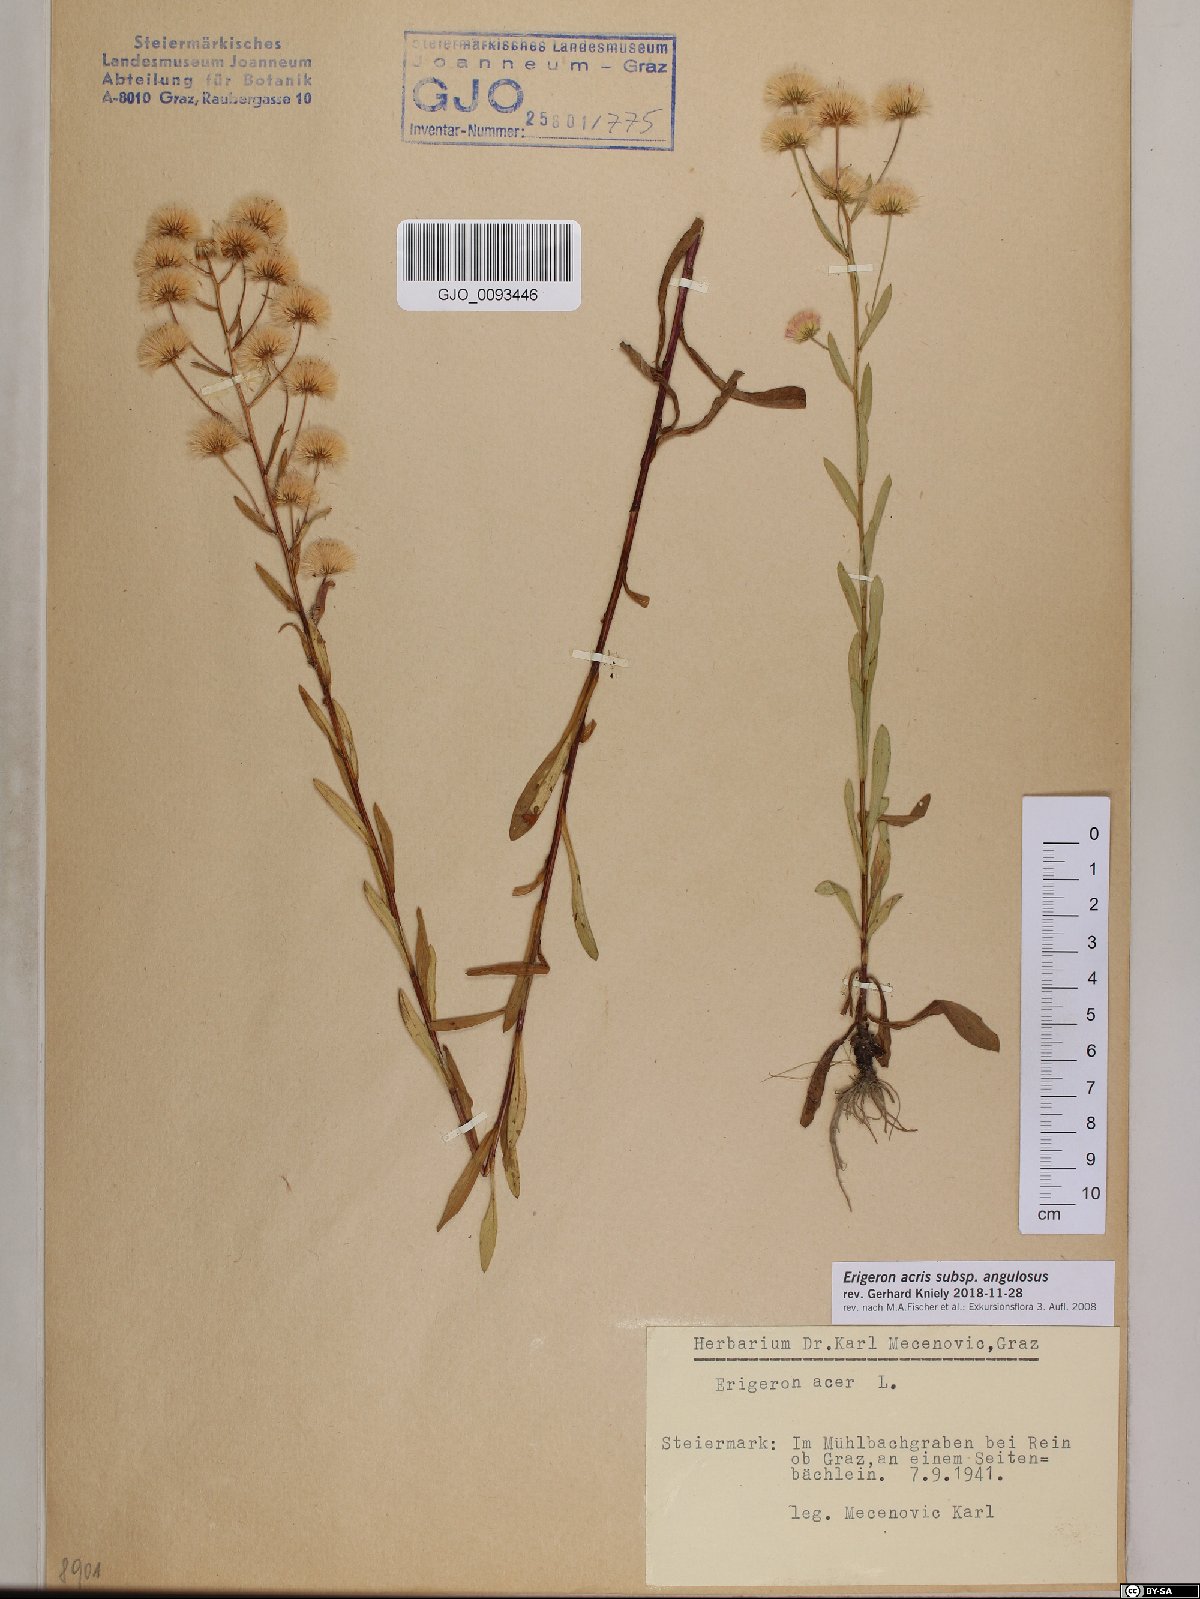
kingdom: Plantae
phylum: Tracheophyta
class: Magnoliopsida
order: Asterales
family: Asteraceae
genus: Erigeron
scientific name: Erigeron angulosus
